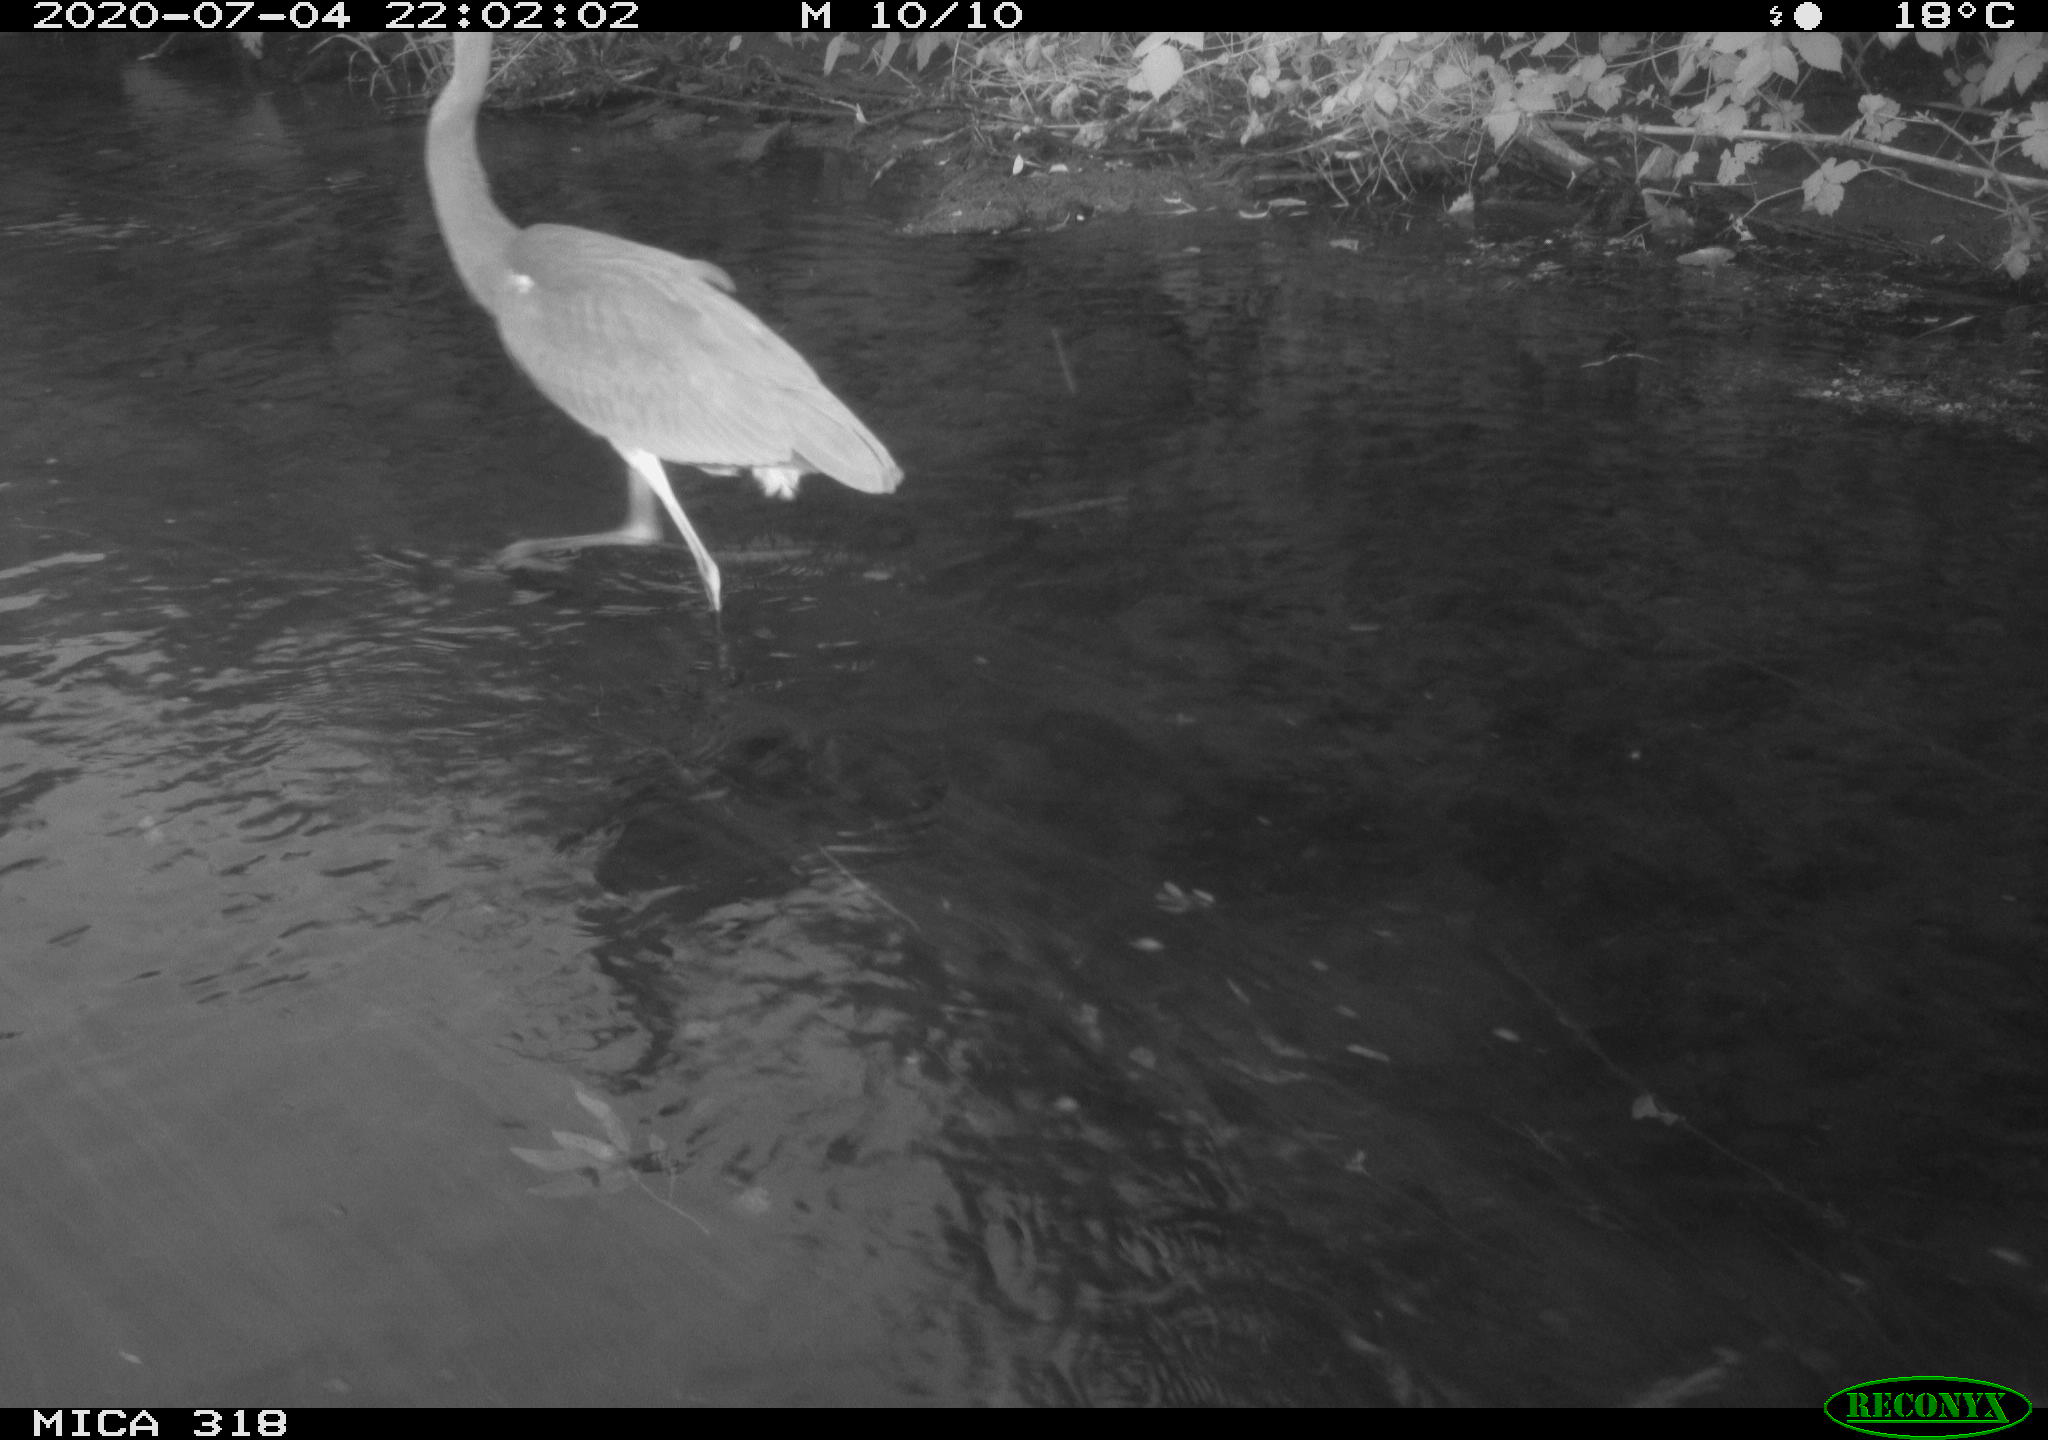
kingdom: Animalia
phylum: Chordata
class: Aves
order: Pelecaniformes
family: Ardeidae
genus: Ardea
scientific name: Ardea cinerea
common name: Grey heron
